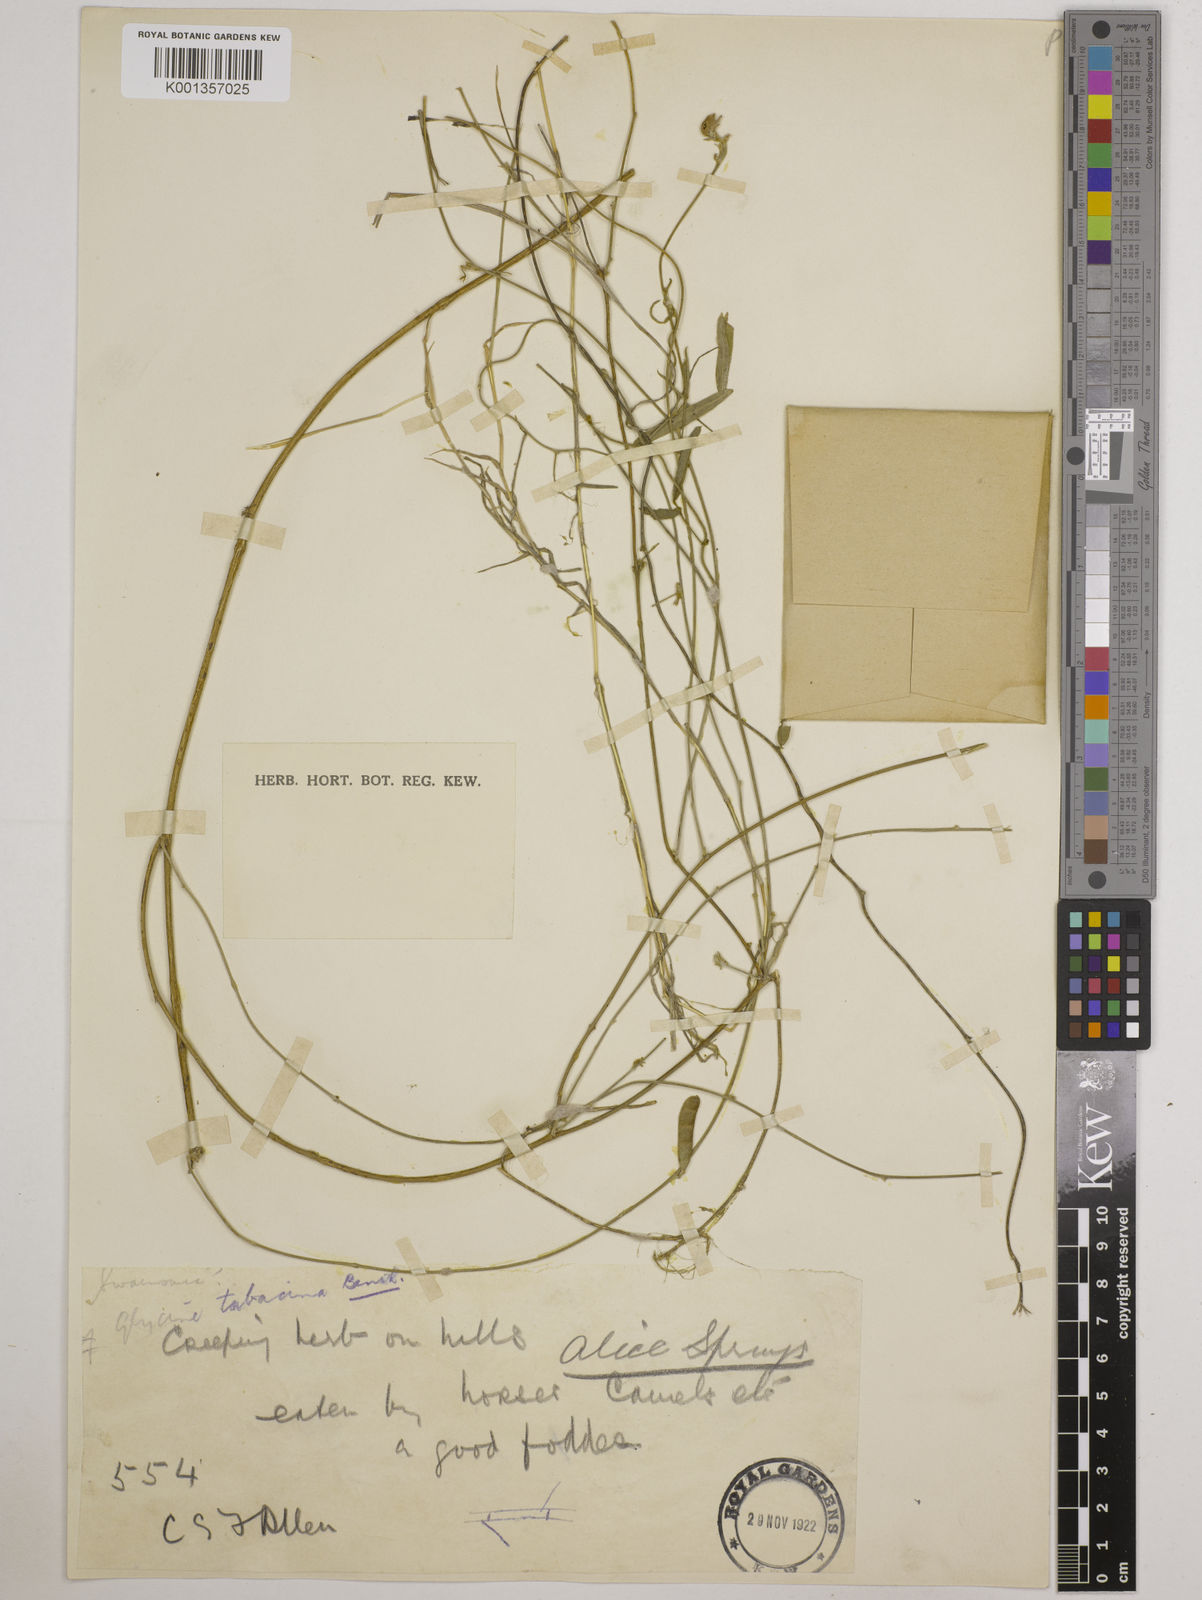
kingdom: Plantae
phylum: Tracheophyta
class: Magnoliopsida
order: Fabales
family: Fabaceae
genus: Vigna
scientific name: Vigna
